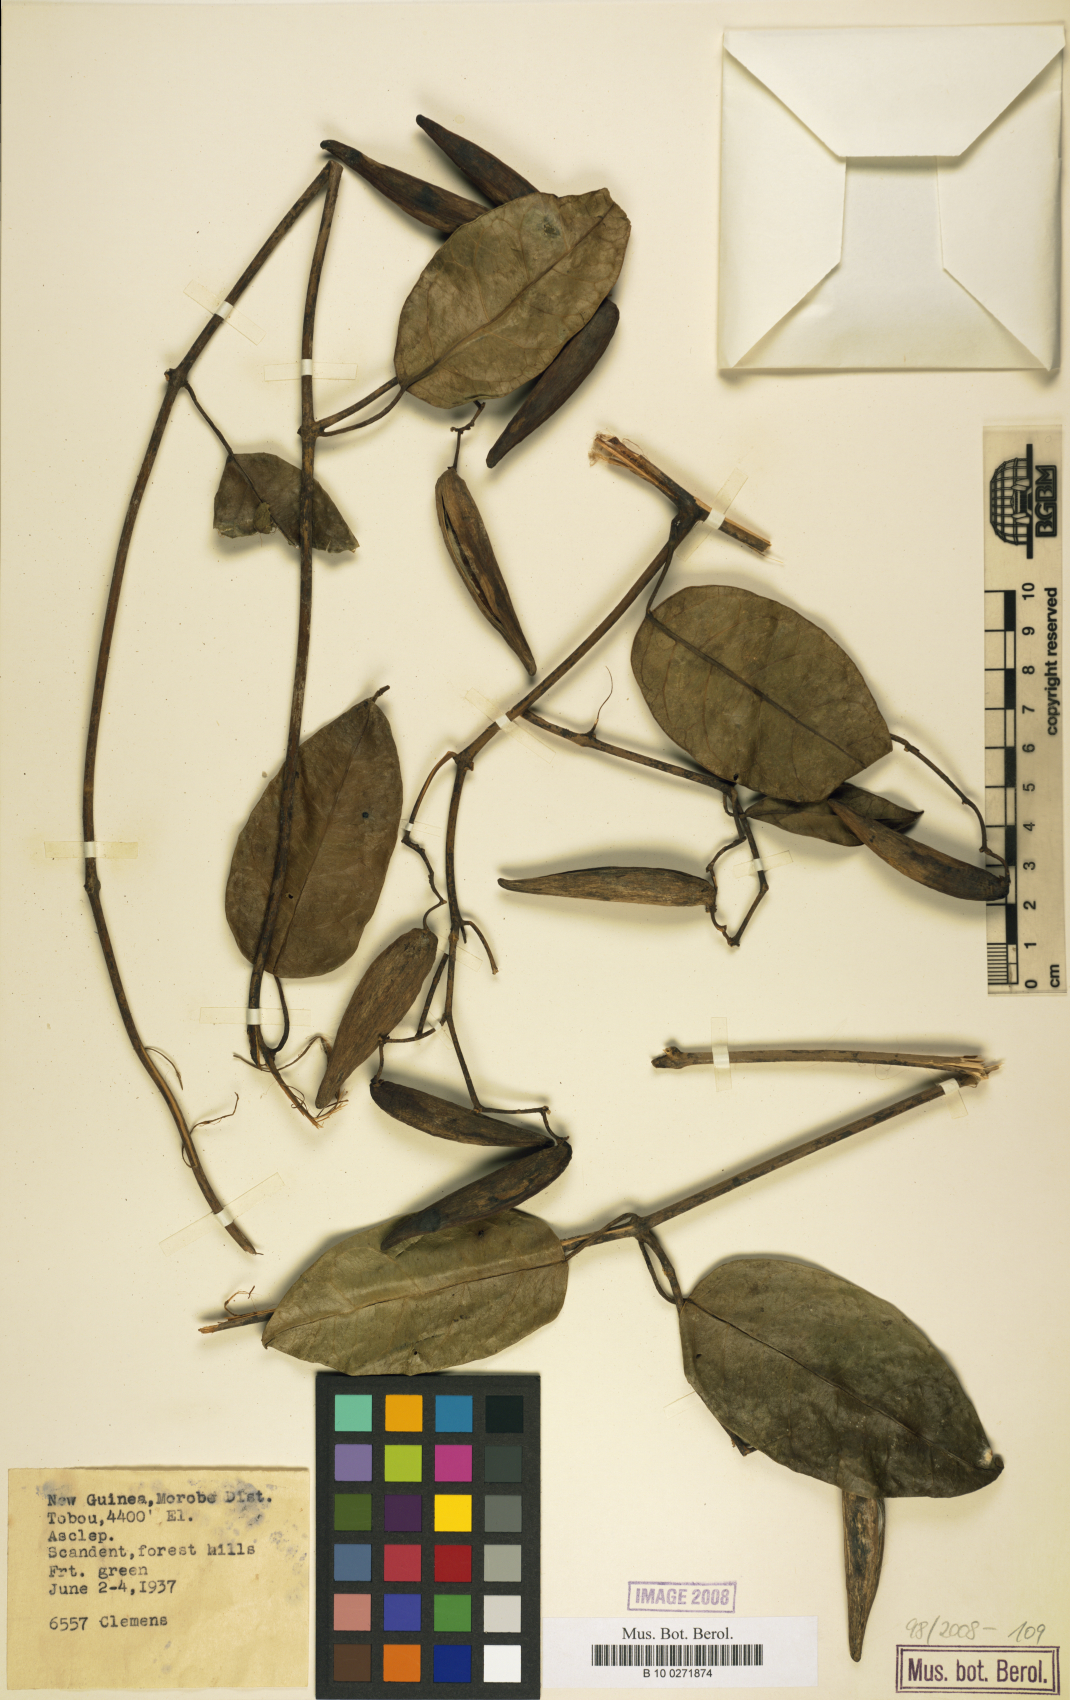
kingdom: Plantae
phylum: Tracheophyta
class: Magnoliopsida
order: Gentianales
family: Asclepiadaceae
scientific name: Asclepiadaceae
